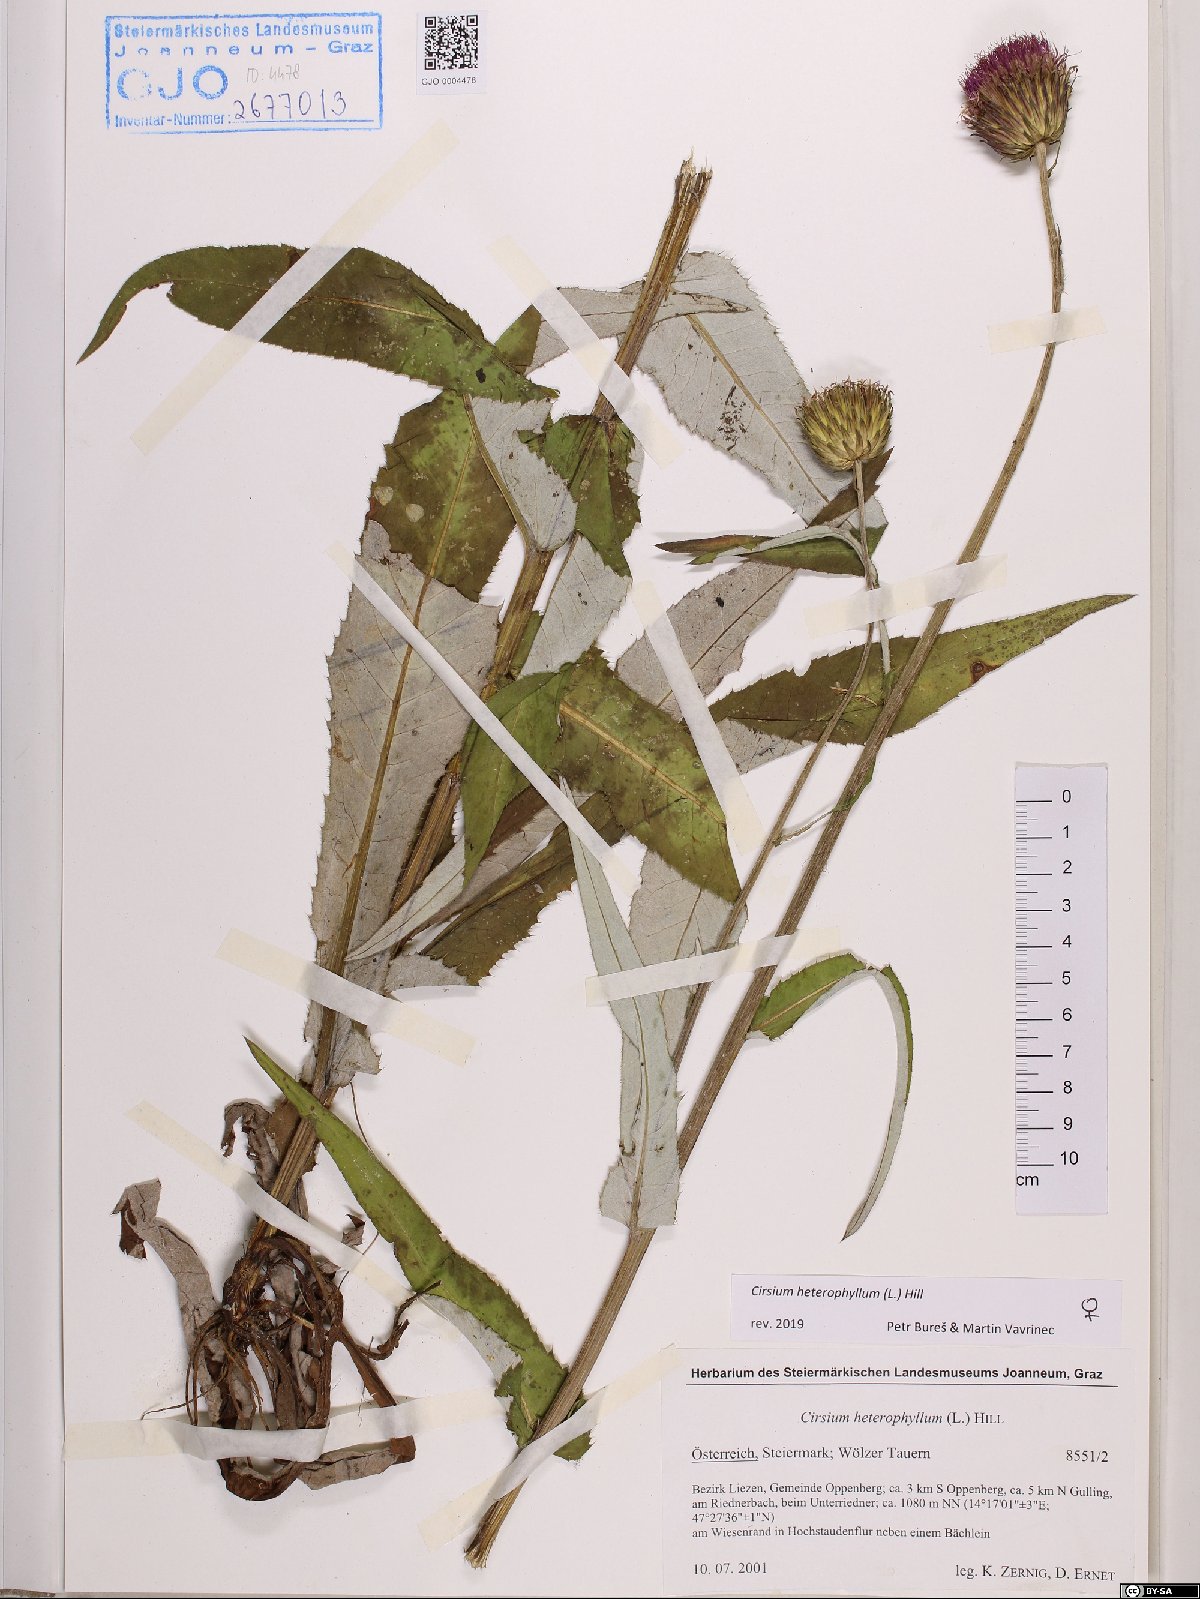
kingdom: Plantae
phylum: Tracheophyta
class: Magnoliopsida
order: Asterales
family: Asteraceae
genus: Cirsium
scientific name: Cirsium heterophyllum
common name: Melancholy thistle
